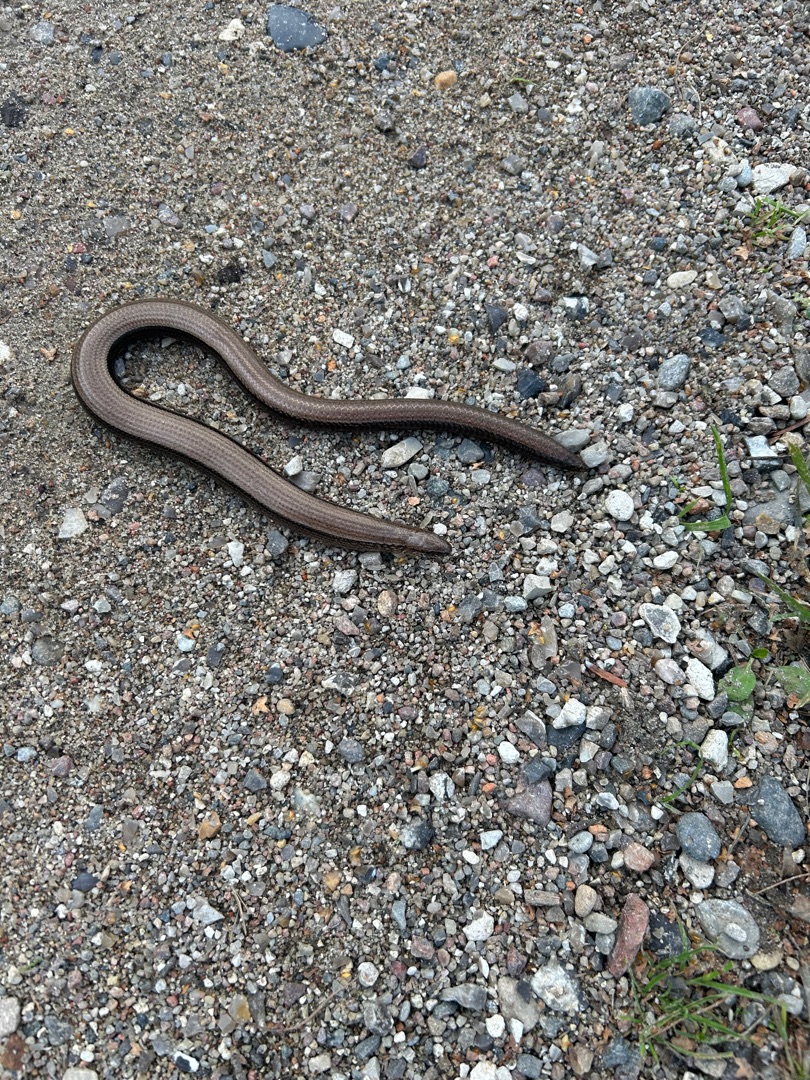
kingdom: Animalia
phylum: Chordata
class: Squamata
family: Anguidae
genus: Anguis
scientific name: Anguis fragilis
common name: Stålorm
